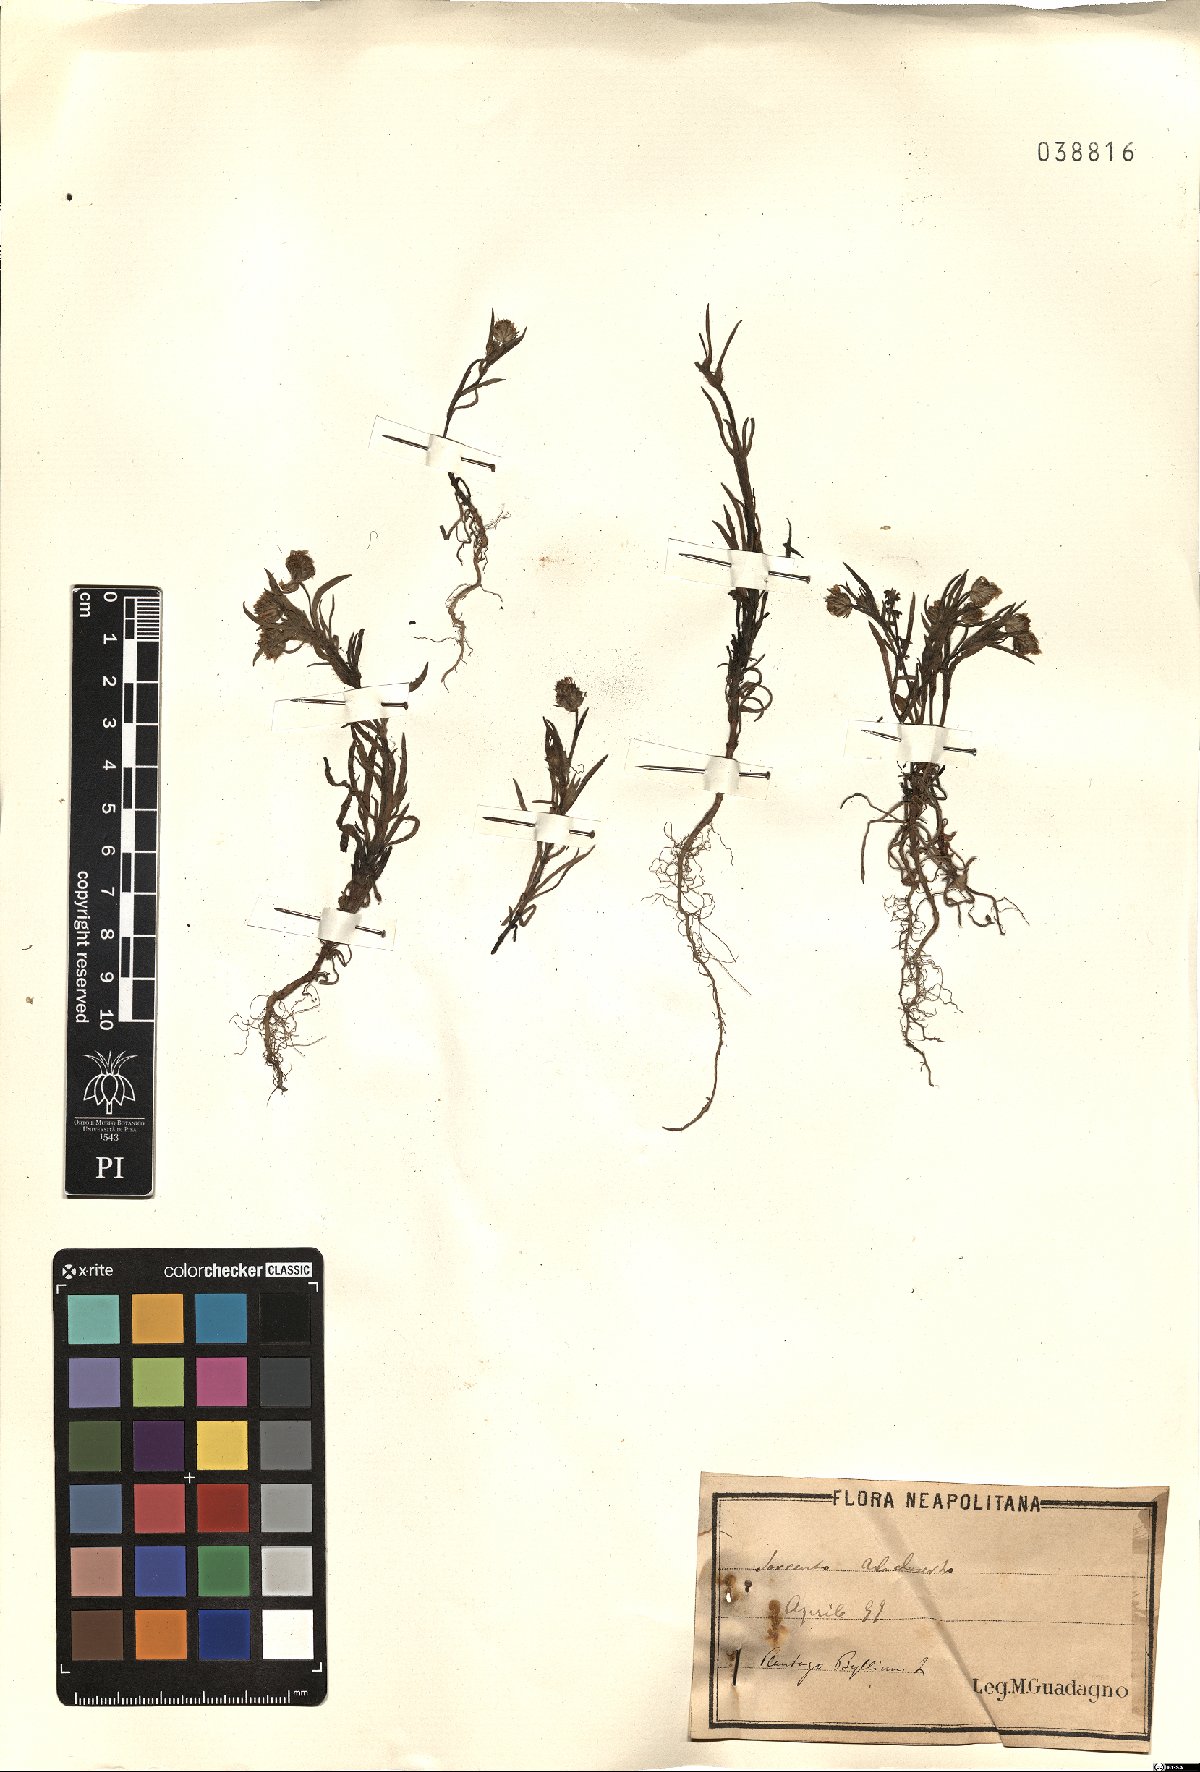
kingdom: Plantae
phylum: Tracheophyta
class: Magnoliopsida
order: Lamiales
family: Plantaginaceae
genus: Plantago
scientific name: Plantago
